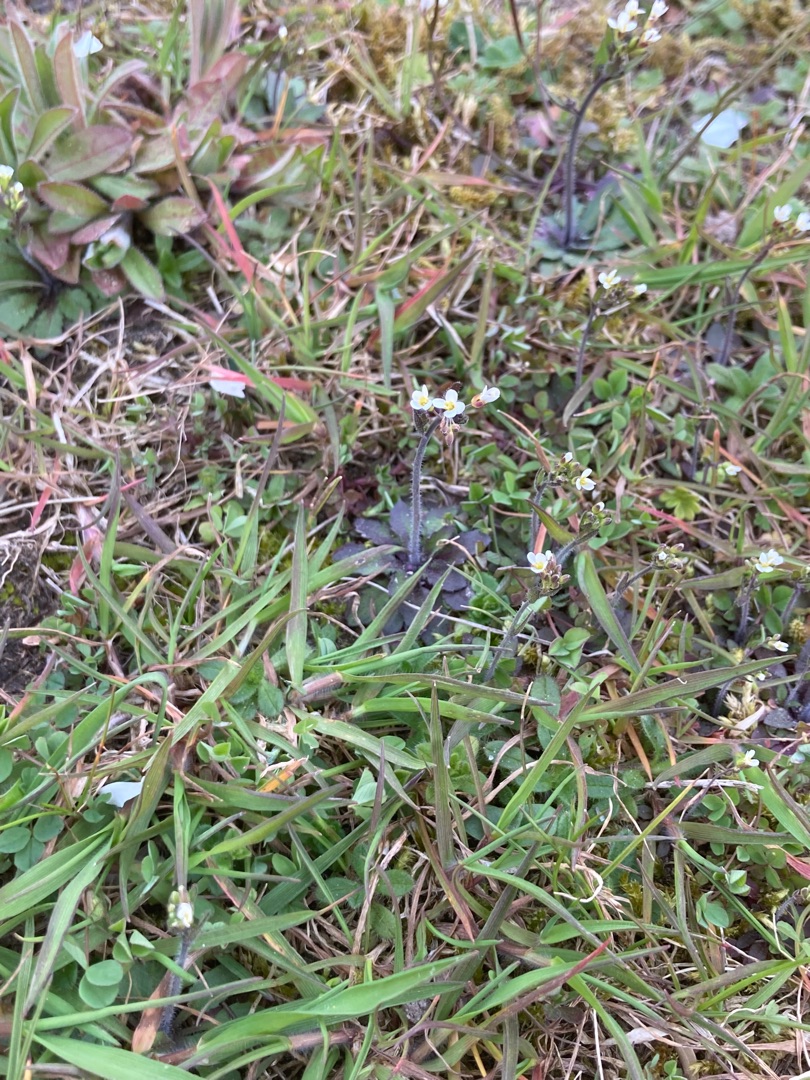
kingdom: Plantae
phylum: Tracheophyta
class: Magnoliopsida
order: Brassicales
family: Brassicaceae
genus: Arabidopsis
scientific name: Arabidopsis thaliana
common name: Almindelig gåsemad
